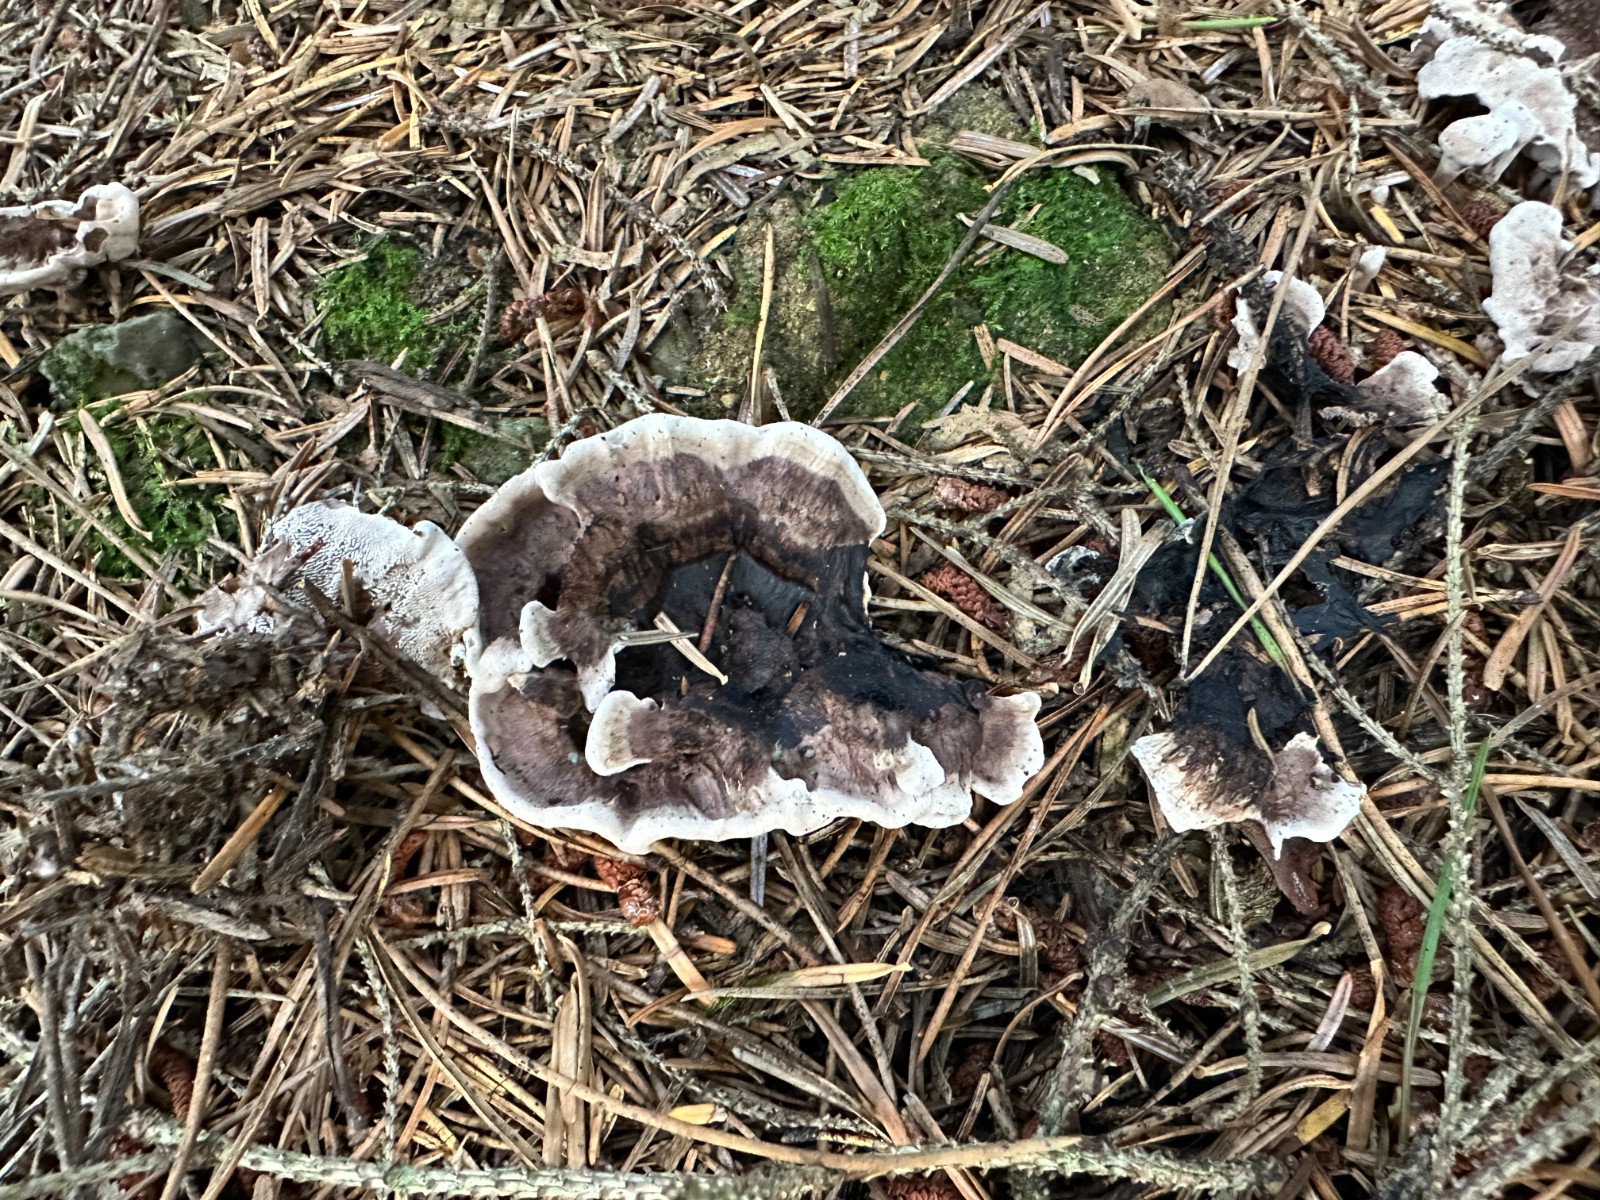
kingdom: Fungi
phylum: Basidiomycota
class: Agaricomycetes
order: Thelephorales
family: Thelephoraceae
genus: Phellodon
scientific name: Phellodon tomentosus
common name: vellugtende duftpigsvamp
